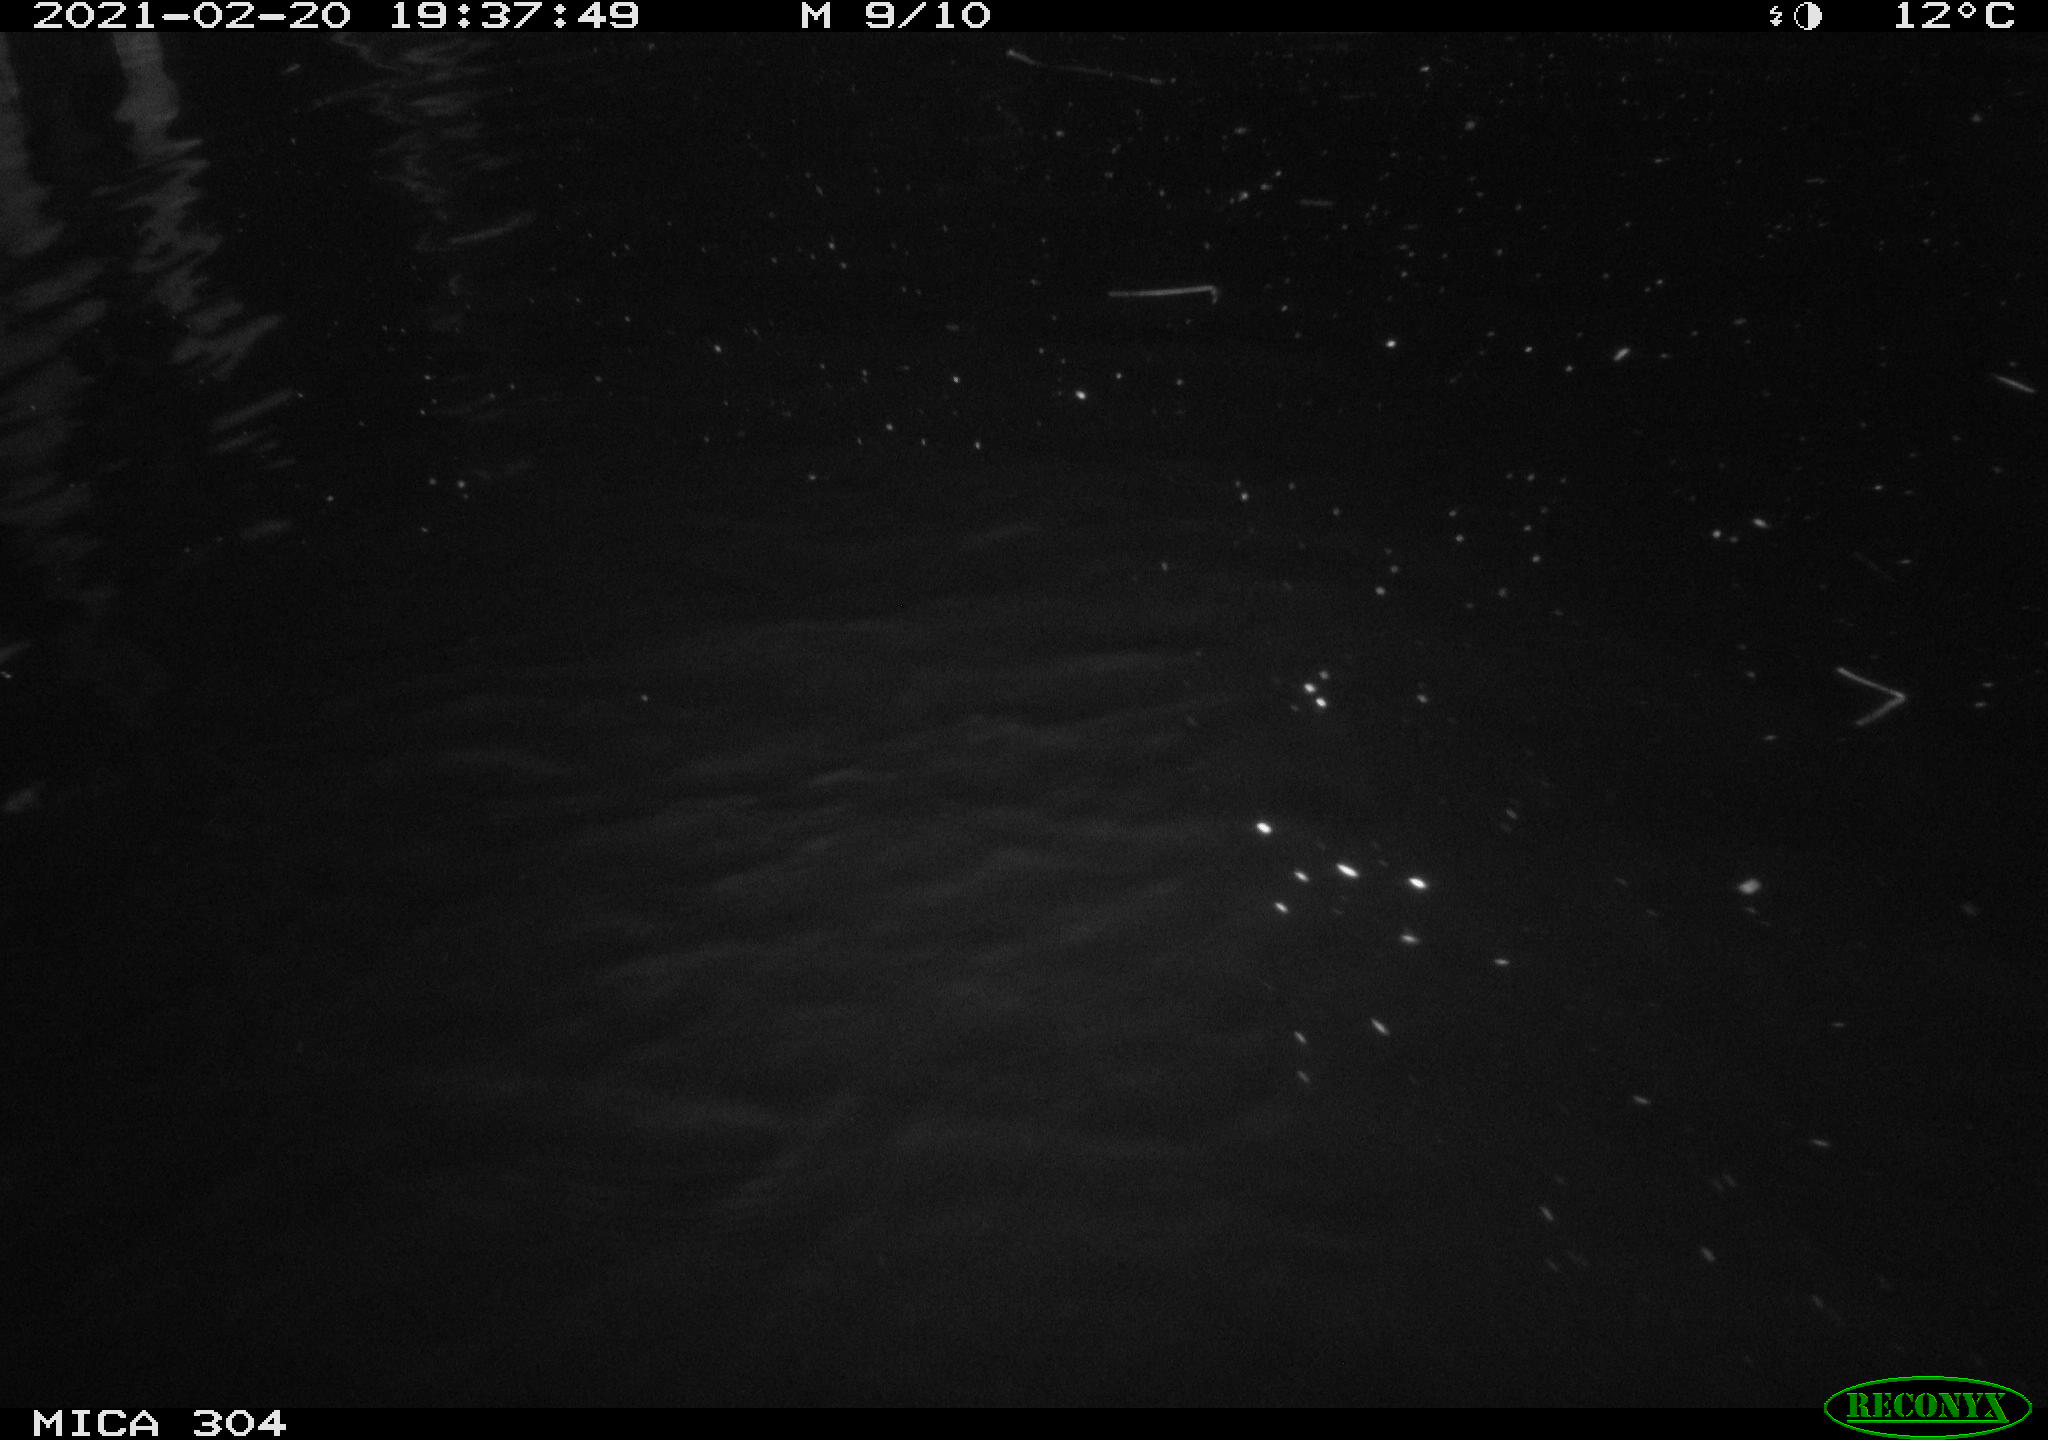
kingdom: Animalia
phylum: Chordata
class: Mammalia
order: Rodentia
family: Cricetidae
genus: Ondatra
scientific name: Ondatra zibethicus
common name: Muskrat
